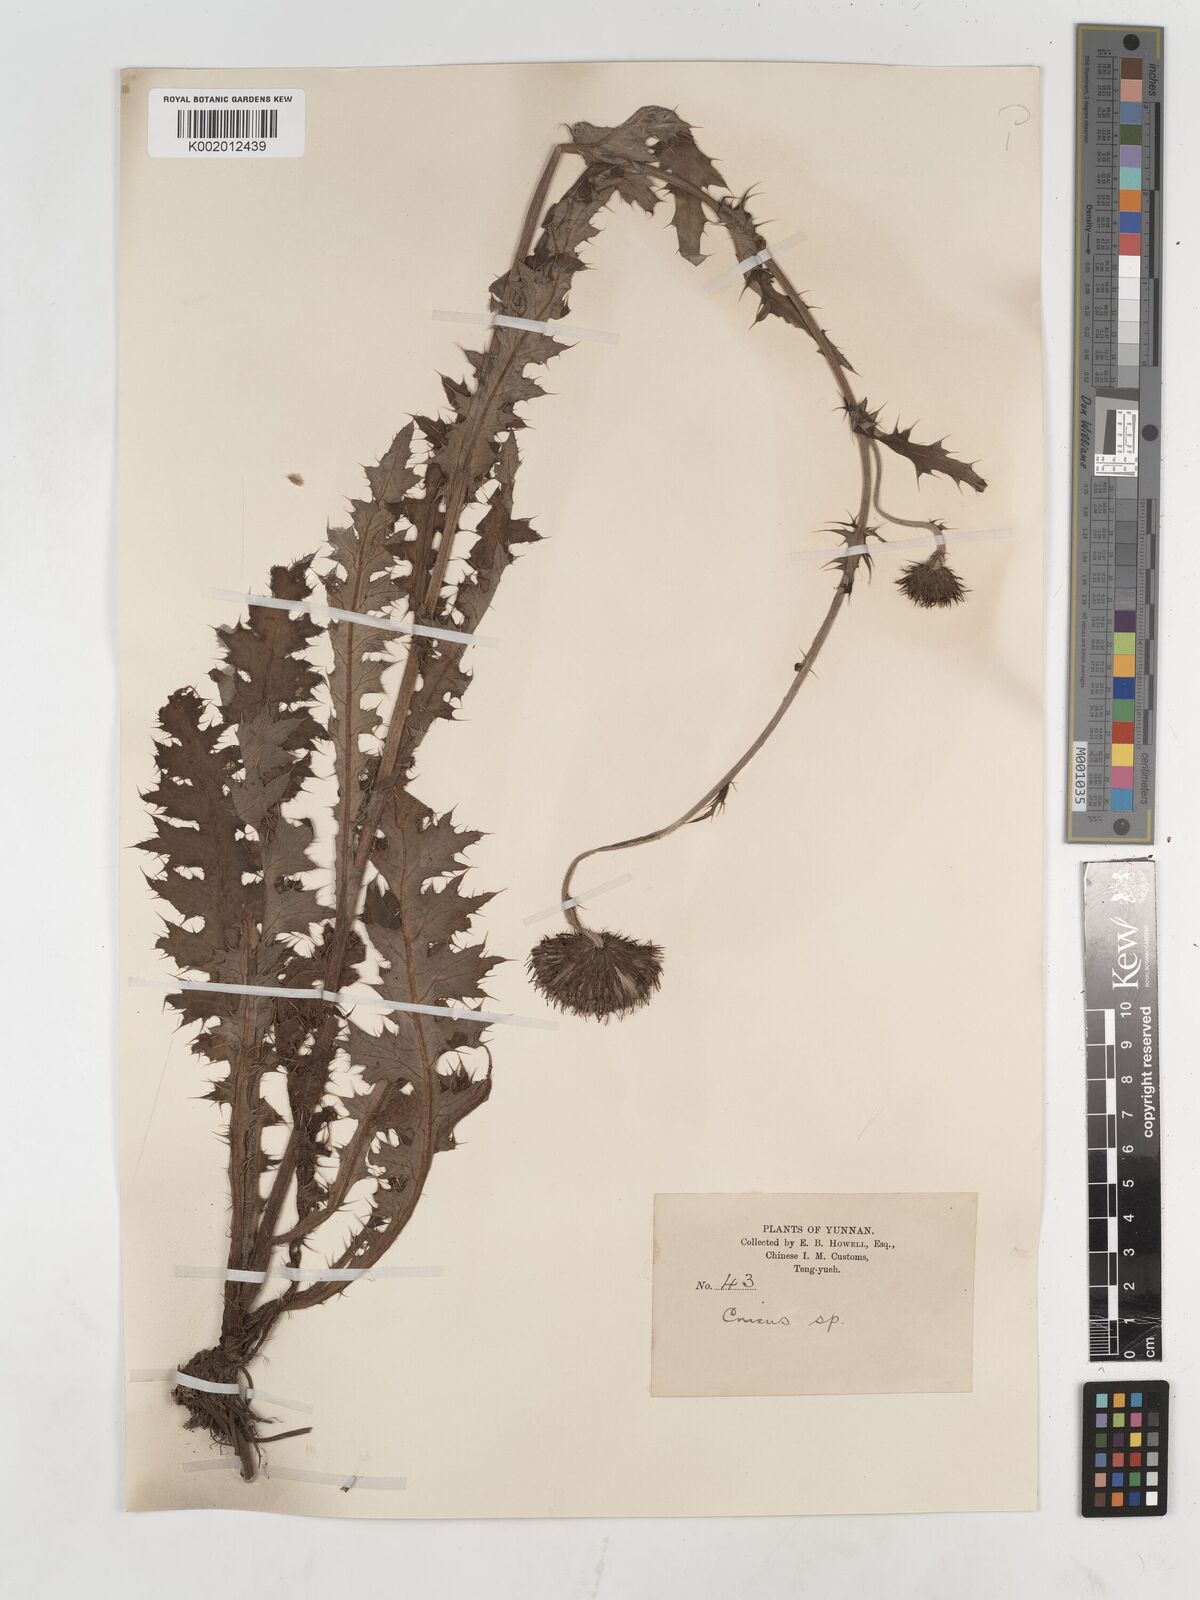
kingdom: Plantae
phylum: Tracheophyta
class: Magnoliopsida
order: Asterales
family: Asteraceae
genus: Cirsium
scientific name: Cirsium
